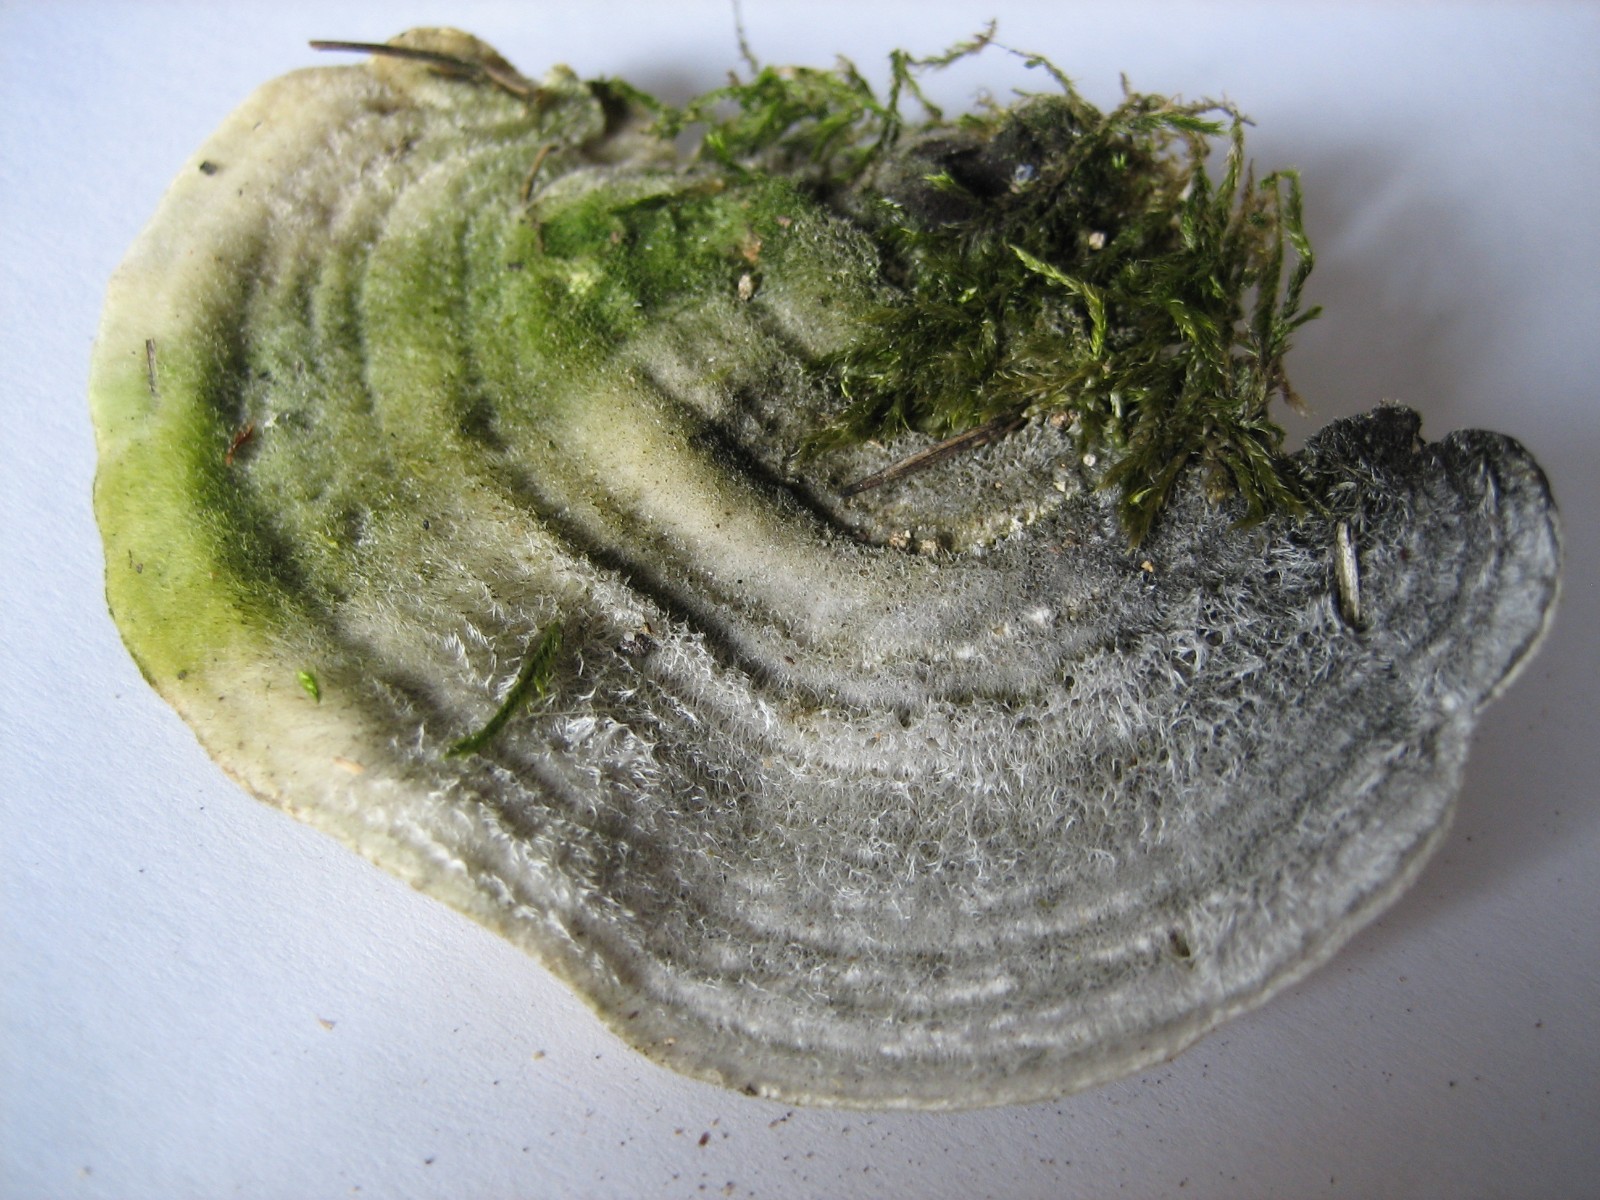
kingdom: Fungi
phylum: Basidiomycota
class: Agaricomycetes
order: Polyporales
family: Polyporaceae
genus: Lenzites
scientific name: Lenzites betulinus
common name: birke-læderporesvamp
